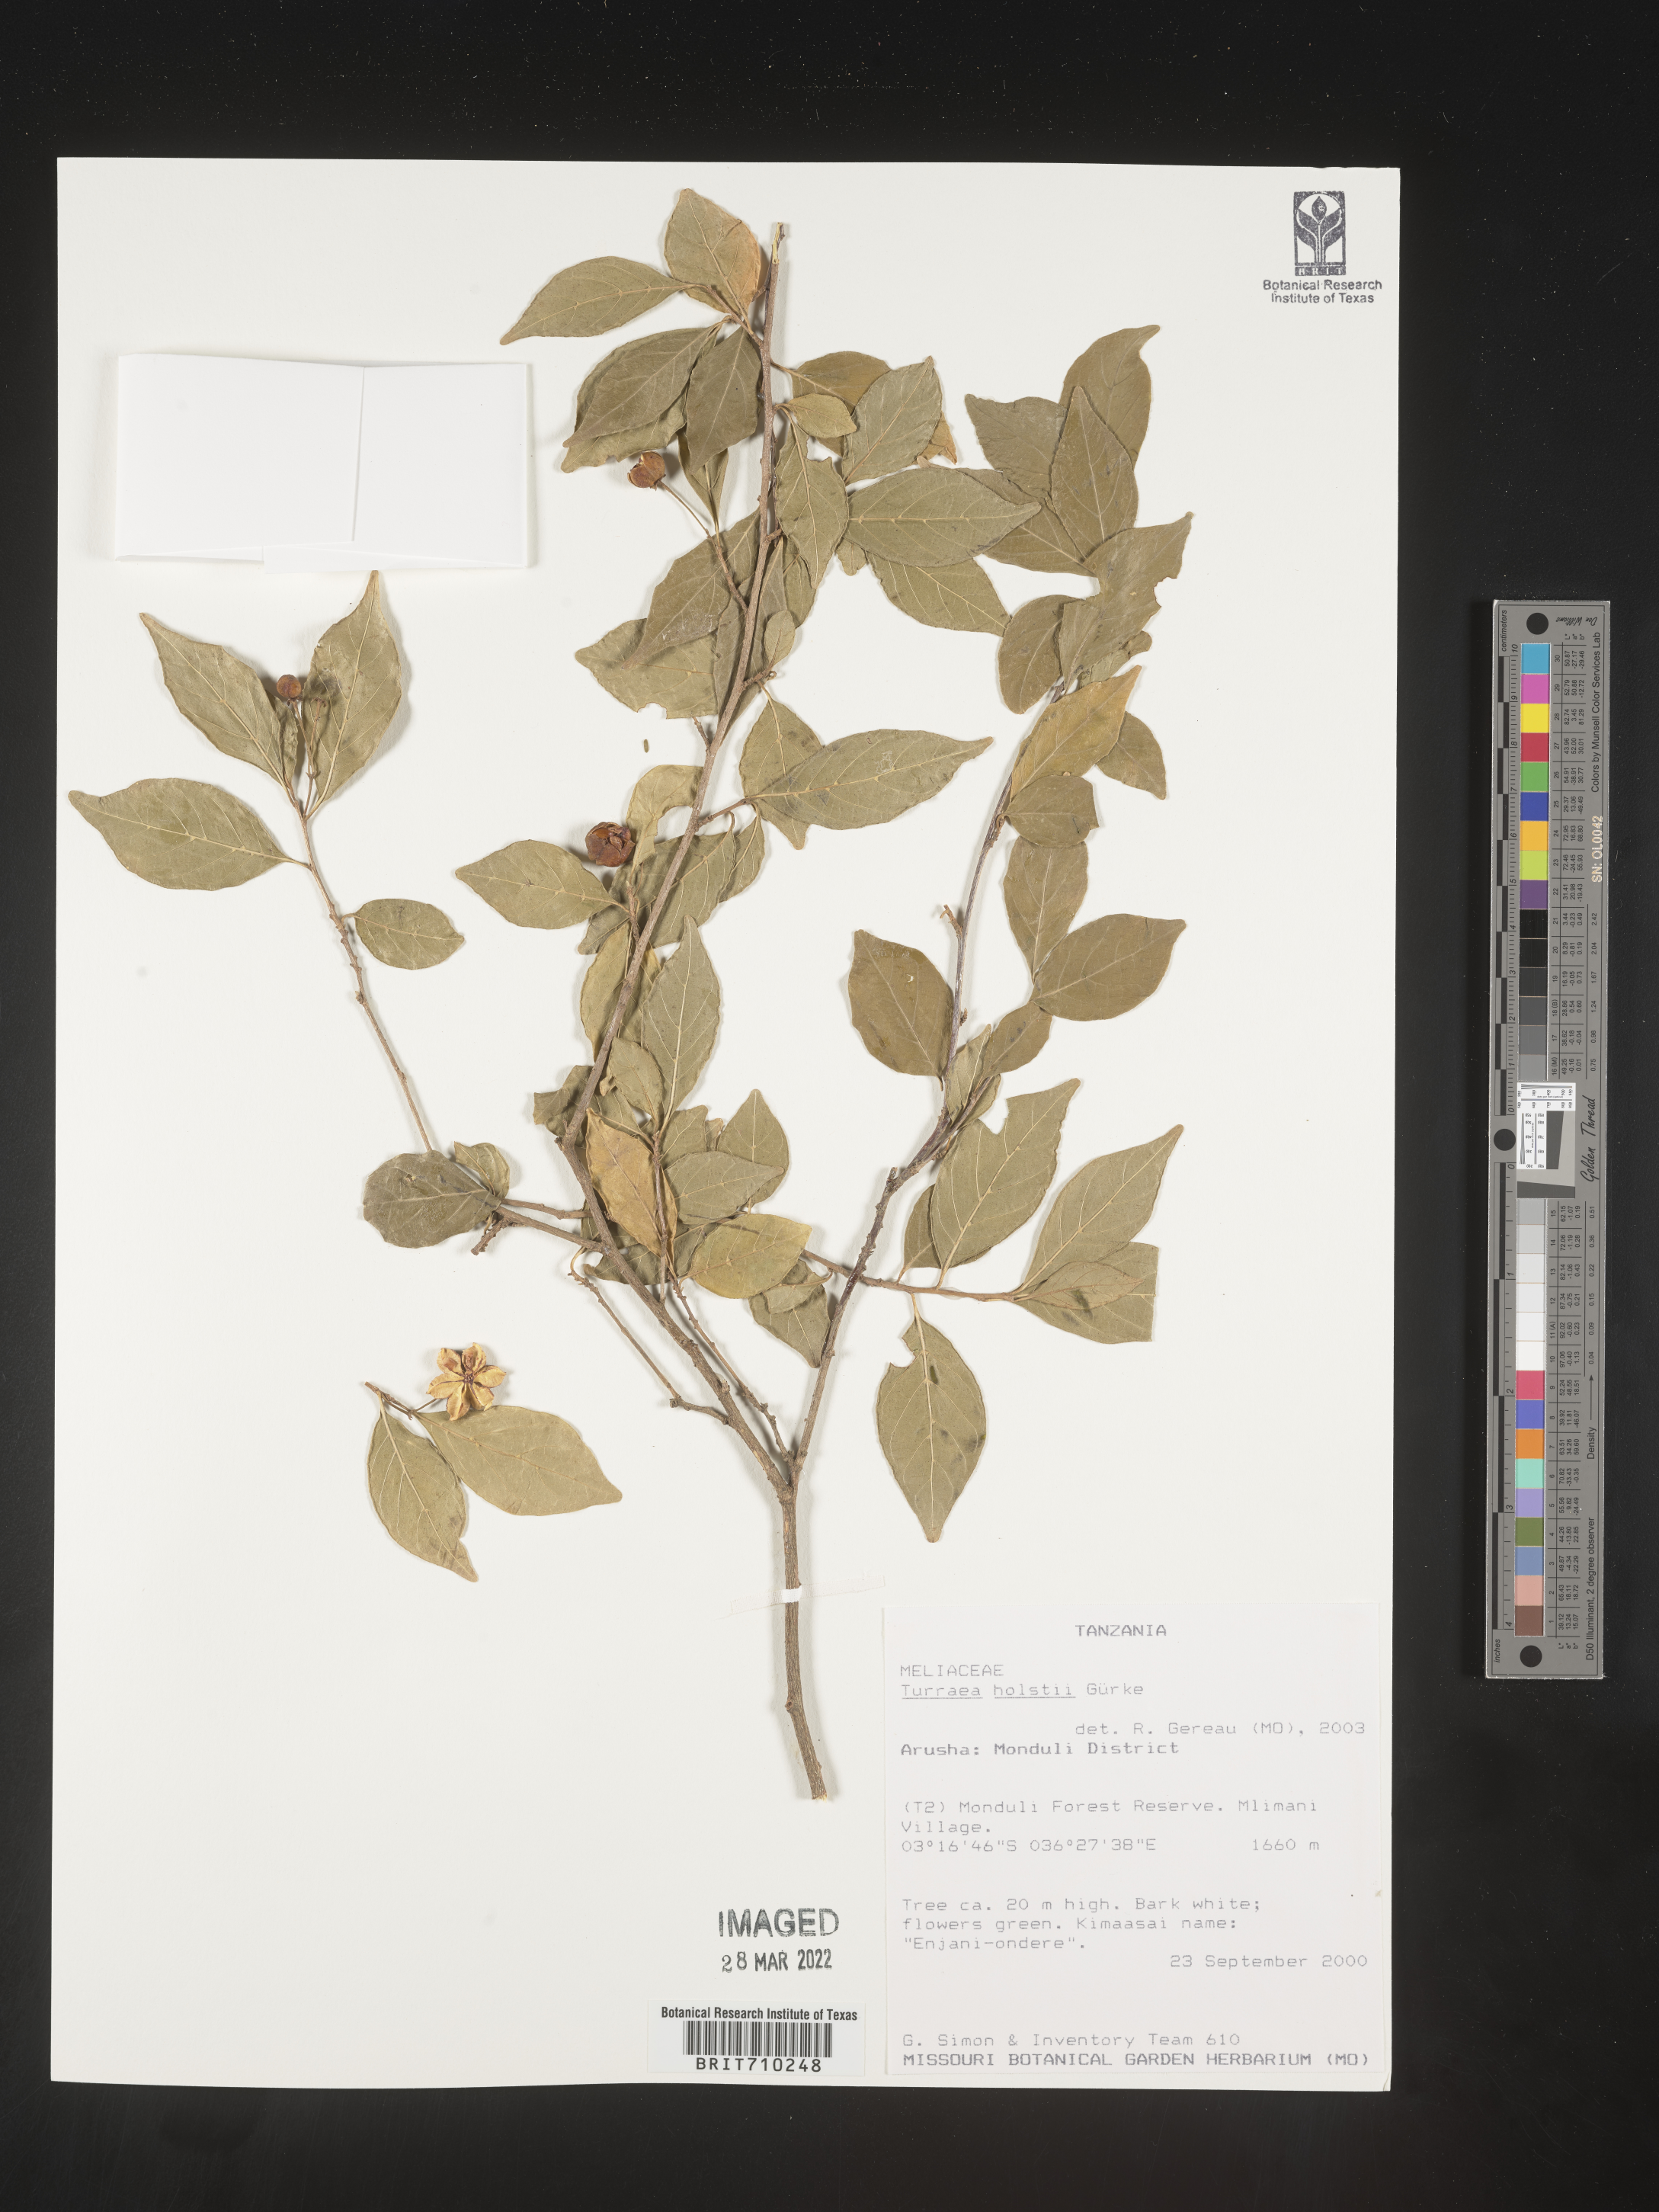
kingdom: Plantae
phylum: Tracheophyta
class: Magnoliopsida
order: Sapindales
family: Meliaceae
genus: Turraea
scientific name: Turraea
